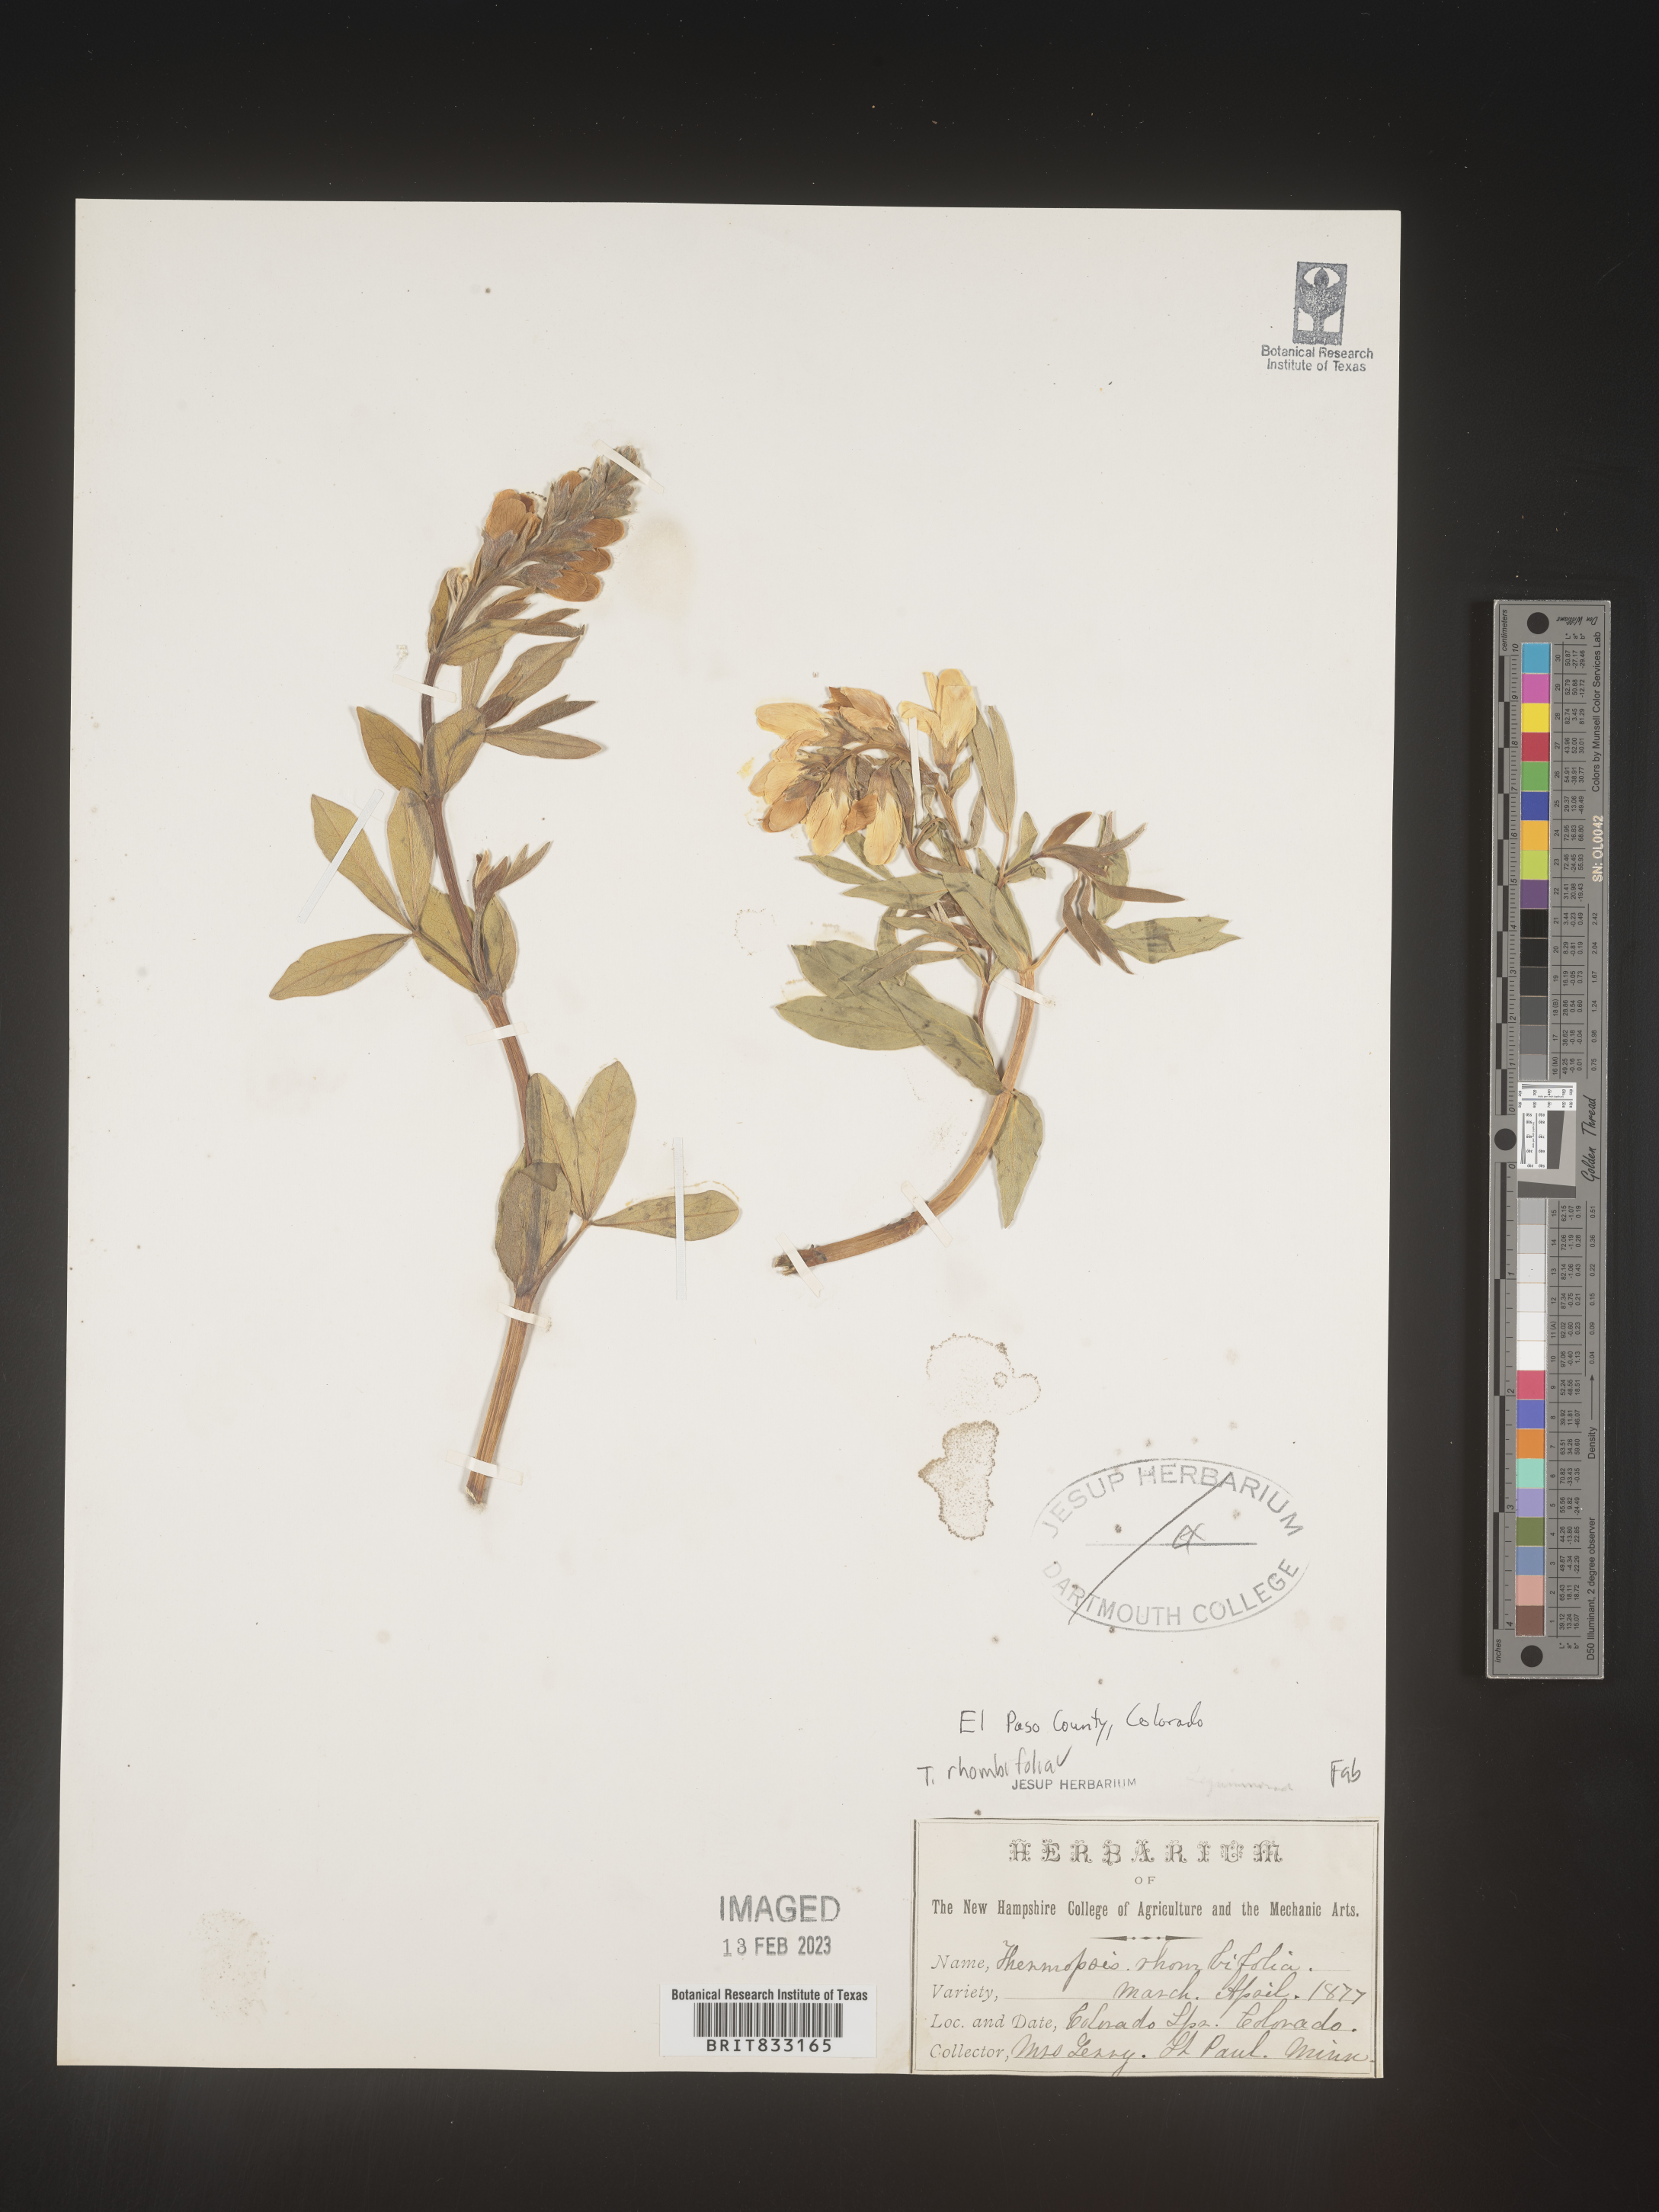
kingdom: Plantae
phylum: Tracheophyta
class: Magnoliopsida
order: Fabales
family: Fabaceae
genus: Thermopsis
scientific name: Thermopsis rhombifolia
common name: Circle-pod-pea
